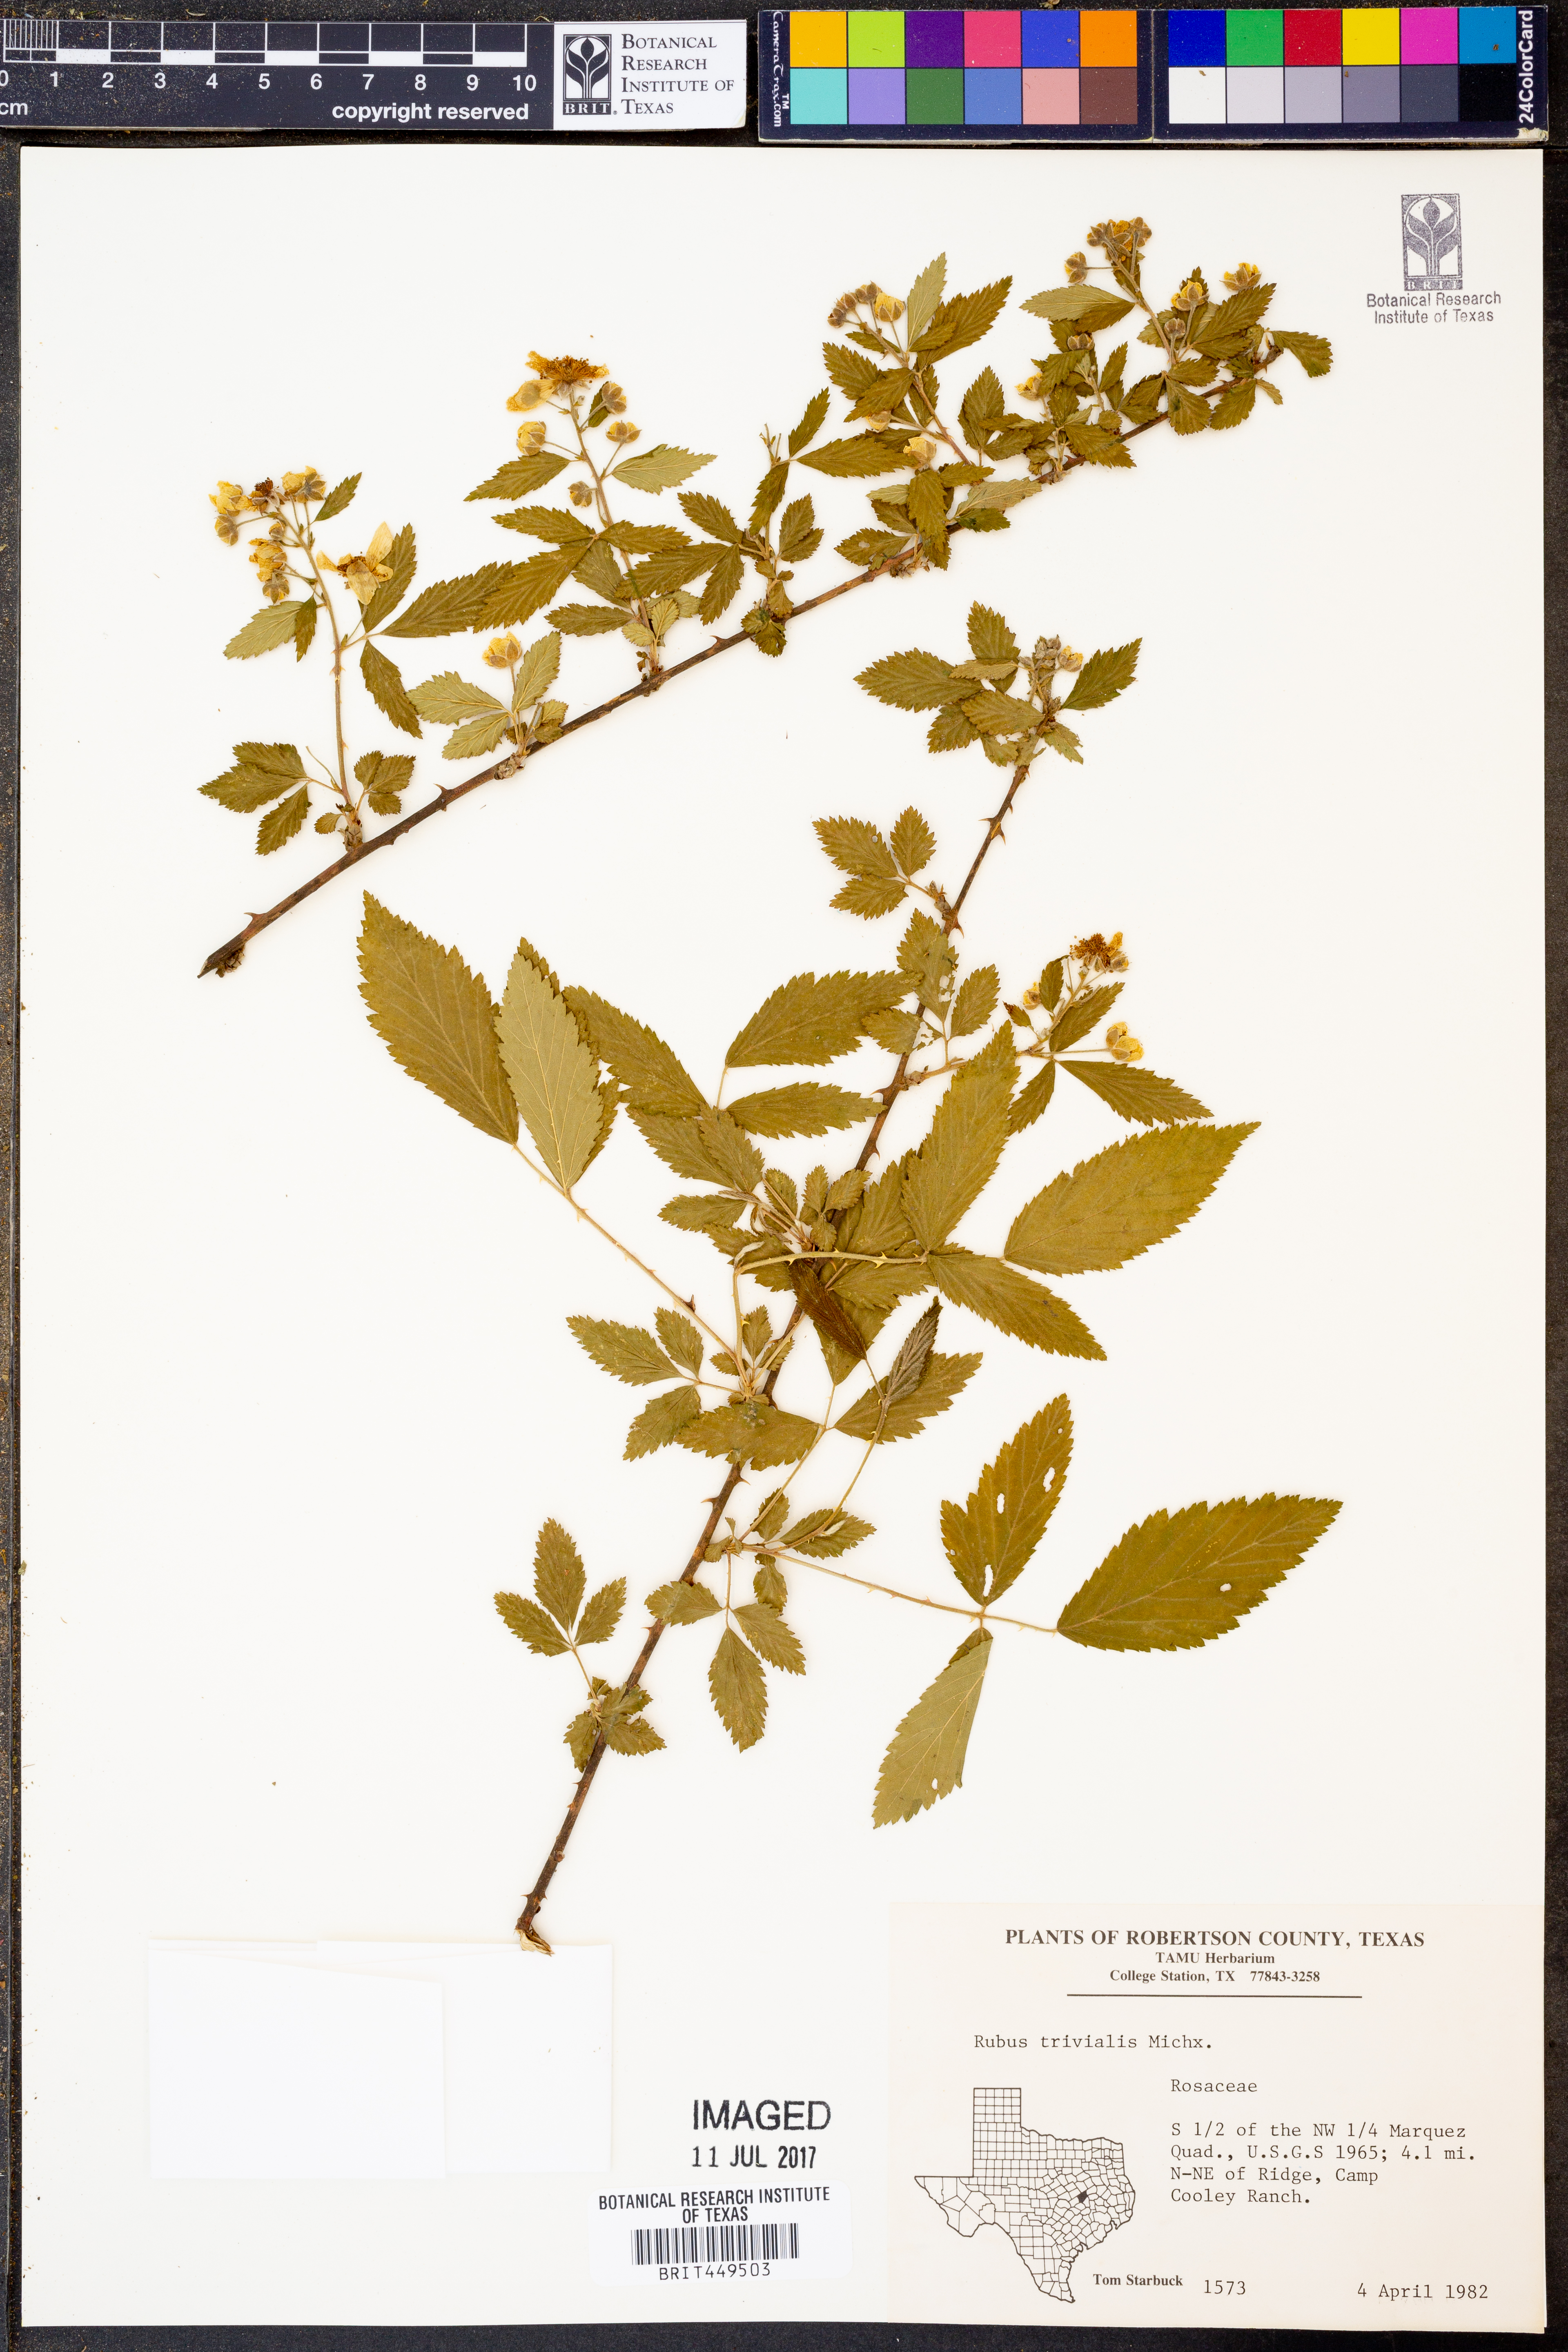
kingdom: Plantae
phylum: Tracheophyta
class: Magnoliopsida
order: Rosales
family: Rosaceae
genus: Rubus
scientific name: Rubus trivialis
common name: Southern dewberry
